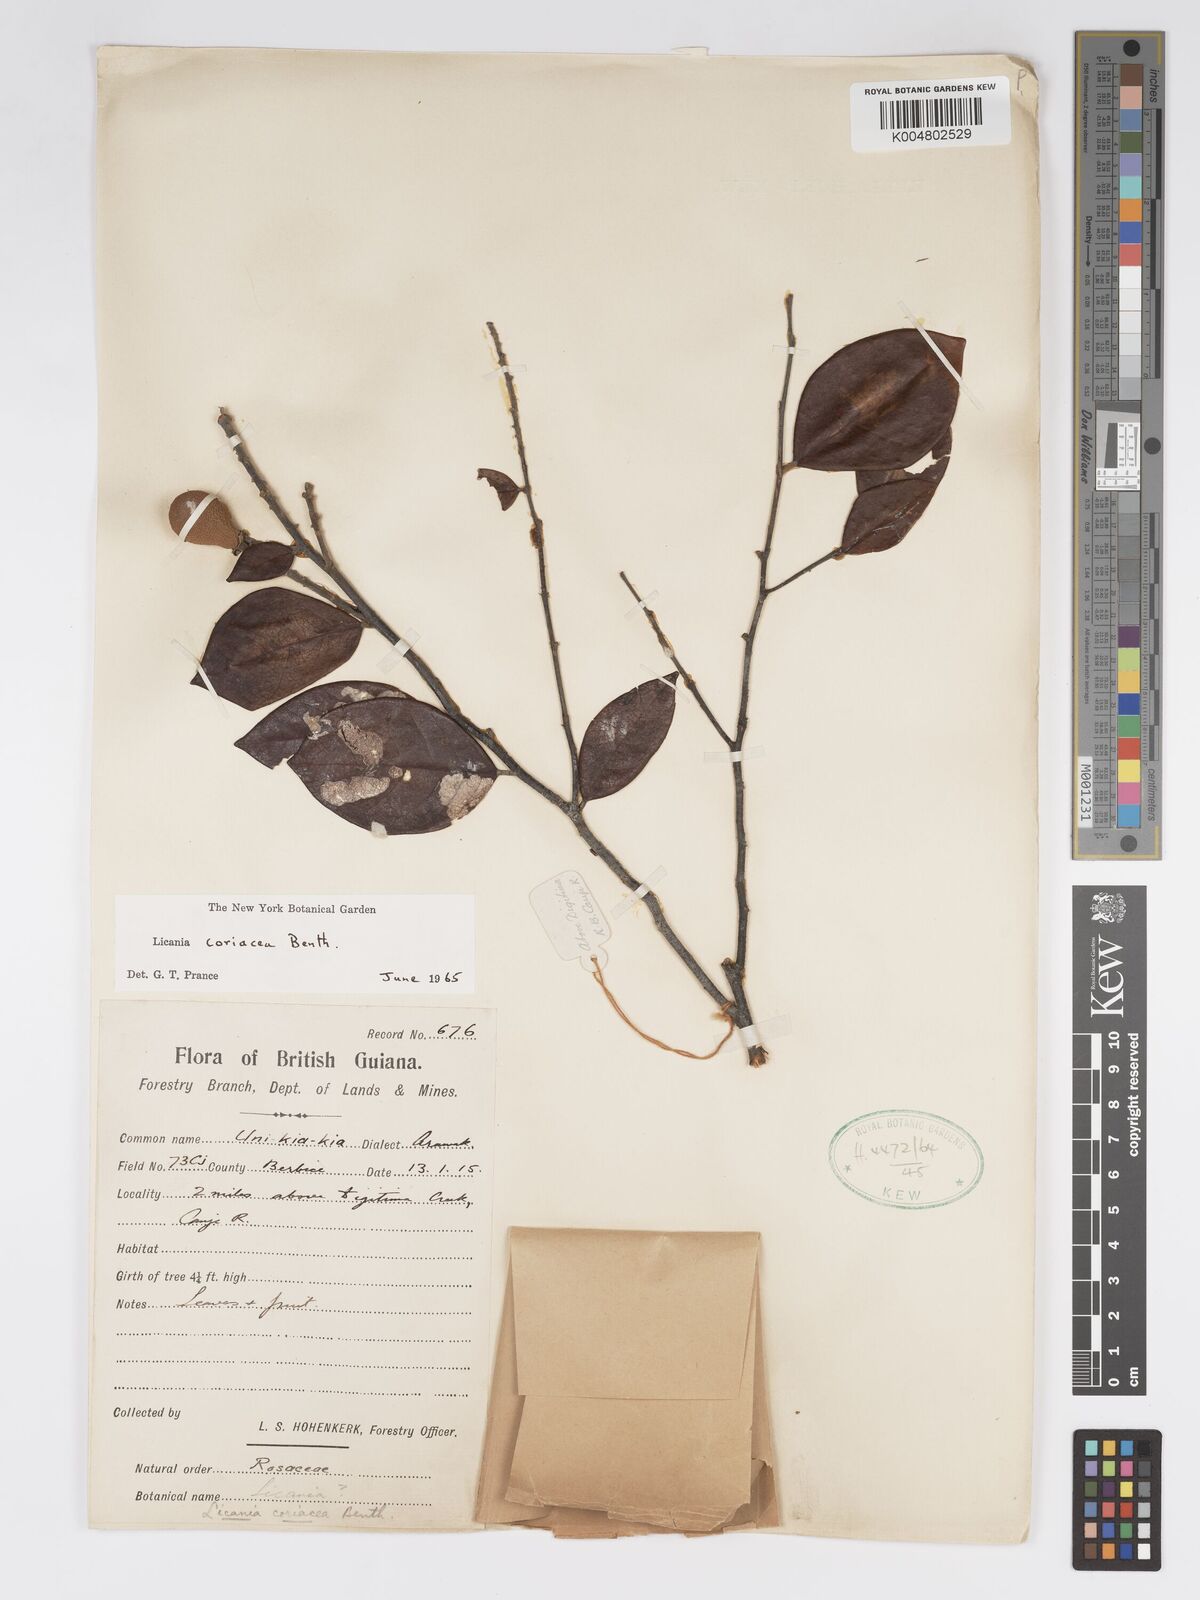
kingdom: Plantae
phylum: Tracheophyta
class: Magnoliopsida
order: Malpighiales
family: Chrysobalanaceae
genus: Licania
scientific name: Licania coriacea
